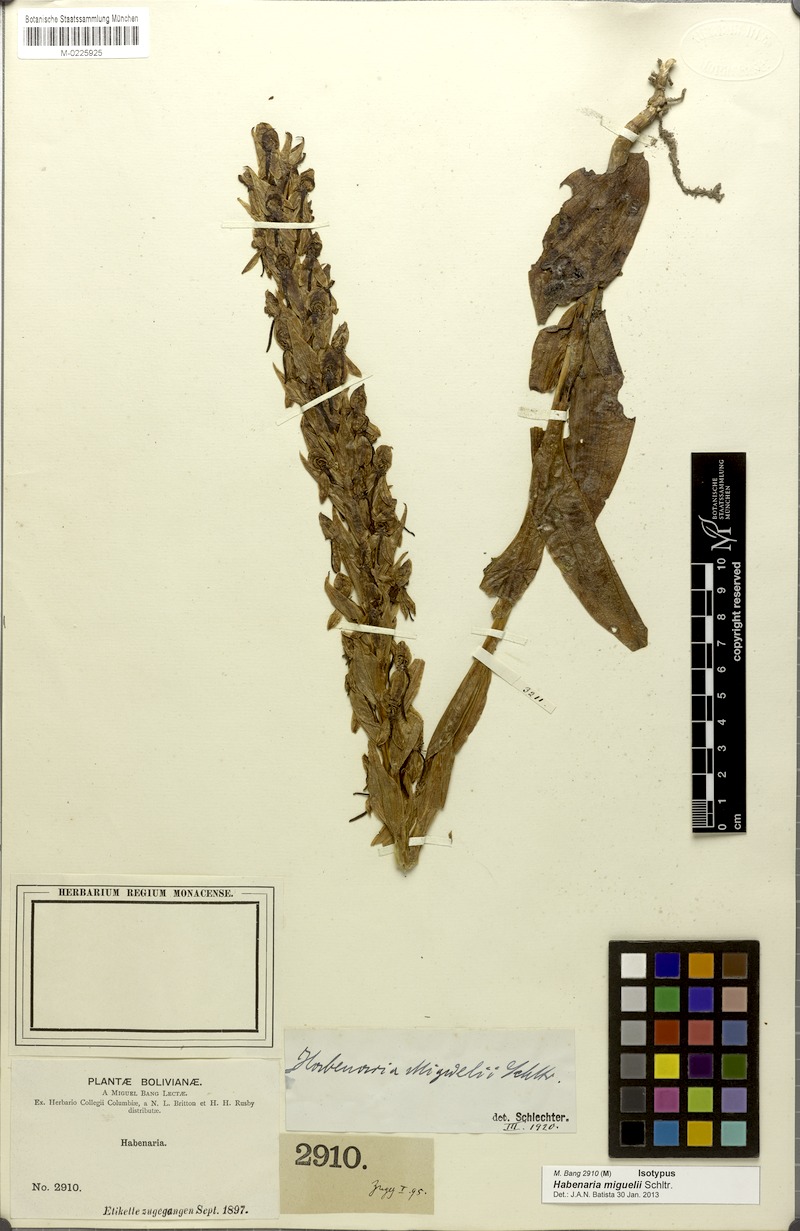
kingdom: Plantae
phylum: Tracheophyta
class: Liliopsida
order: Asparagales
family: Orchidaceae
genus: Habenaria
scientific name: Habenaria polycarpa
